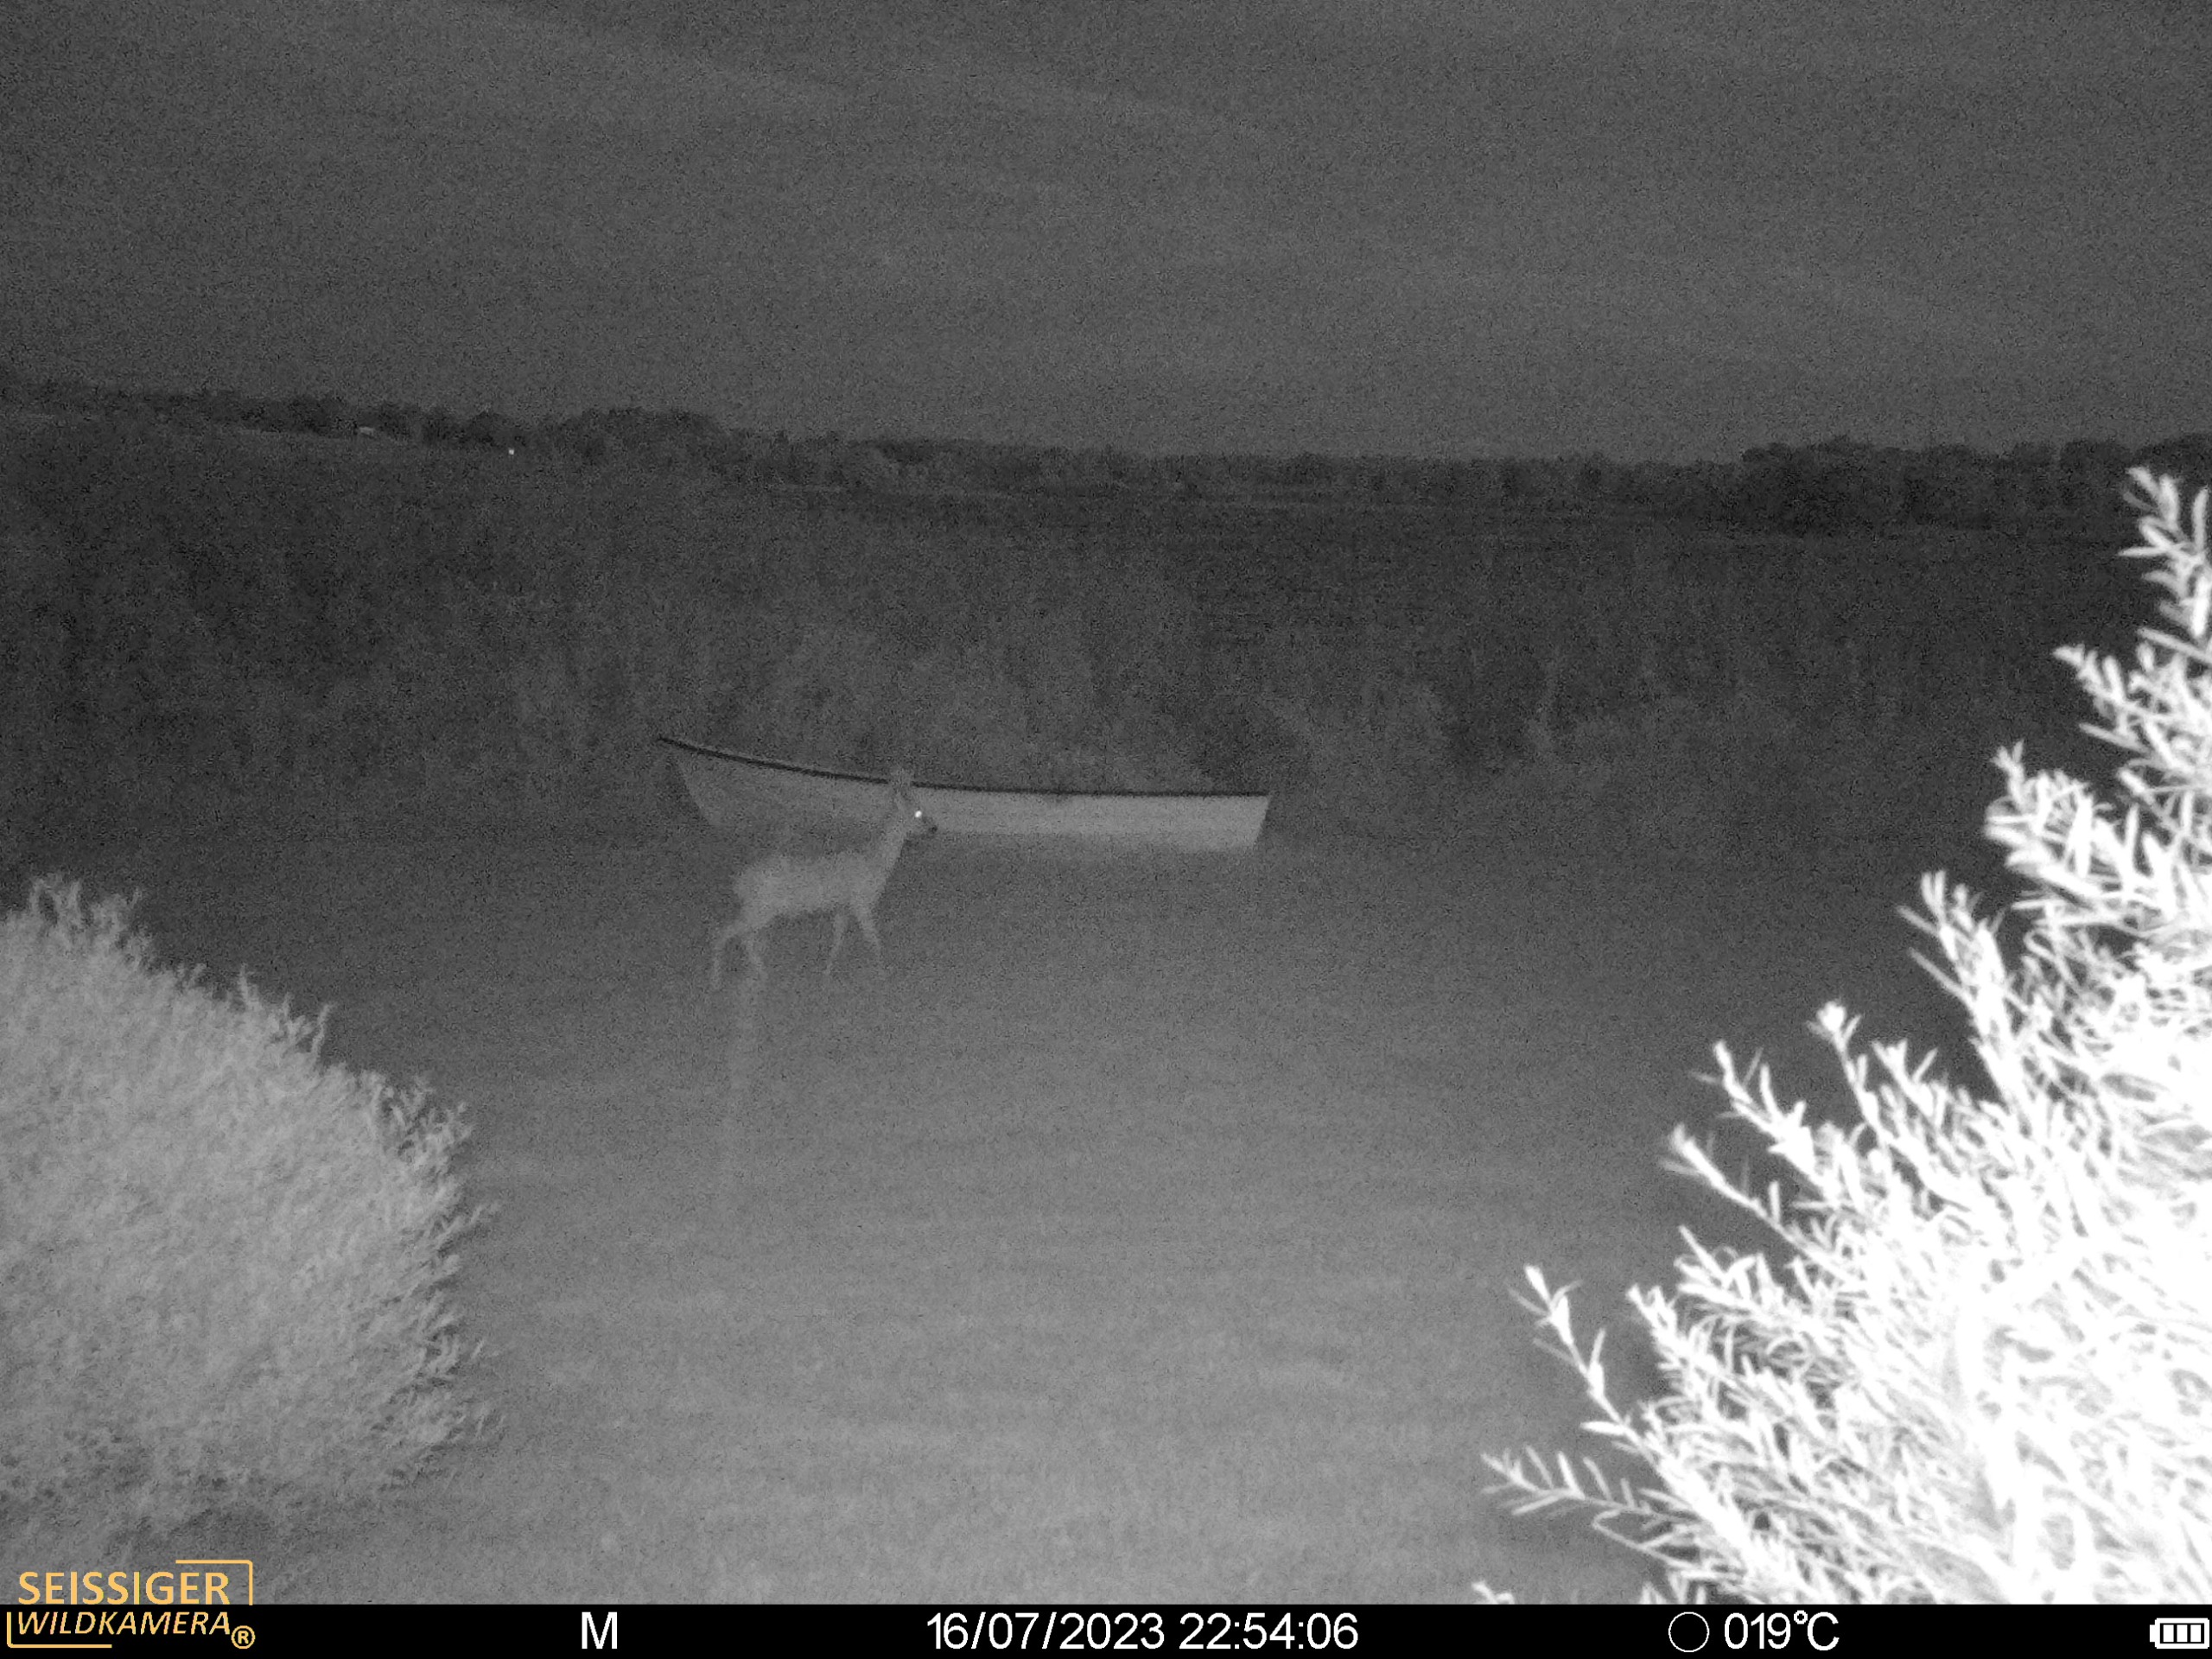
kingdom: Animalia
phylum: Chordata
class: Mammalia
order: Artiodactyla
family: Cervidae
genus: Capreolus
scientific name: Capreolus capreolus
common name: Rådyr
